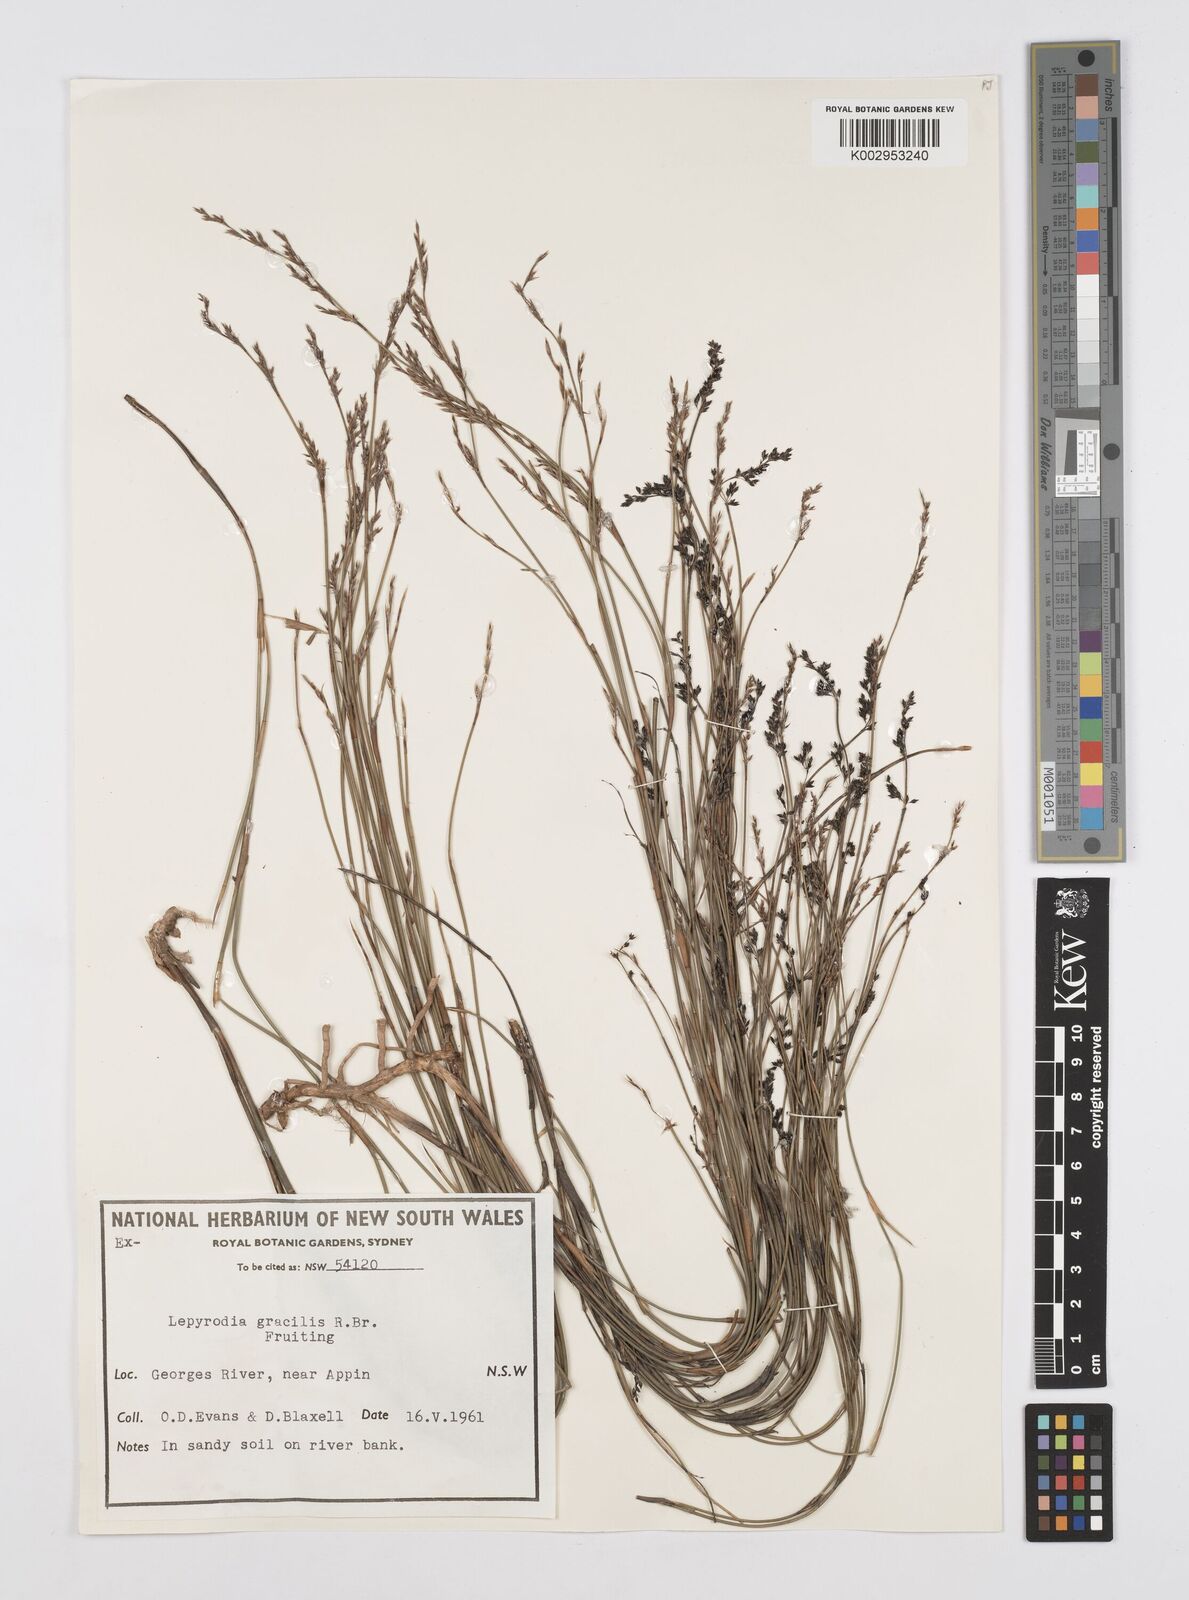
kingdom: Plantae
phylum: Tracheophyta
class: Liliopsida
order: Poales
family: Restionaceae
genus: Sporadanthus
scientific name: Sporadanthus gracilis
